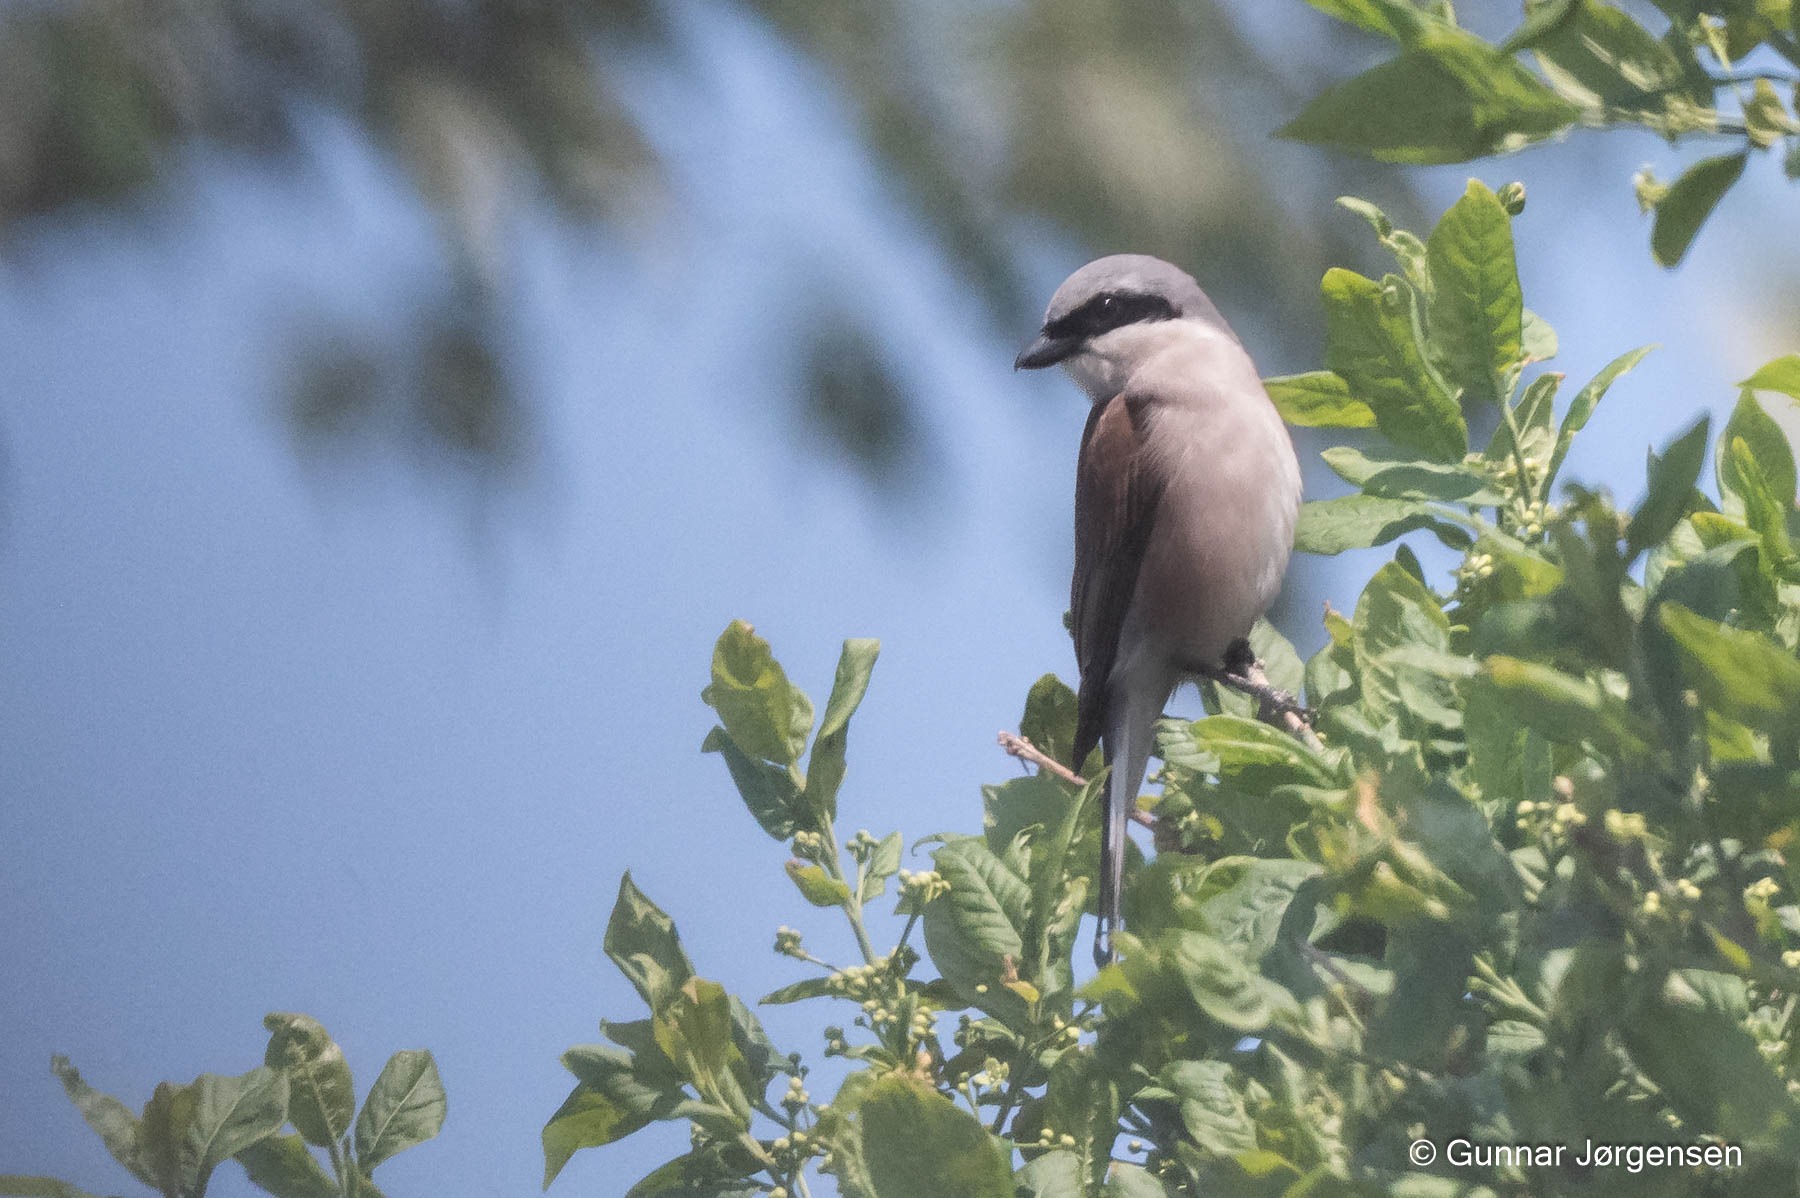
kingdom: Animalia
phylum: Chordata
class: Aves
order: Passeriformes
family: Laniidae
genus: Lanius
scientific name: Lanius collurio
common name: Rødrygget tornskade
